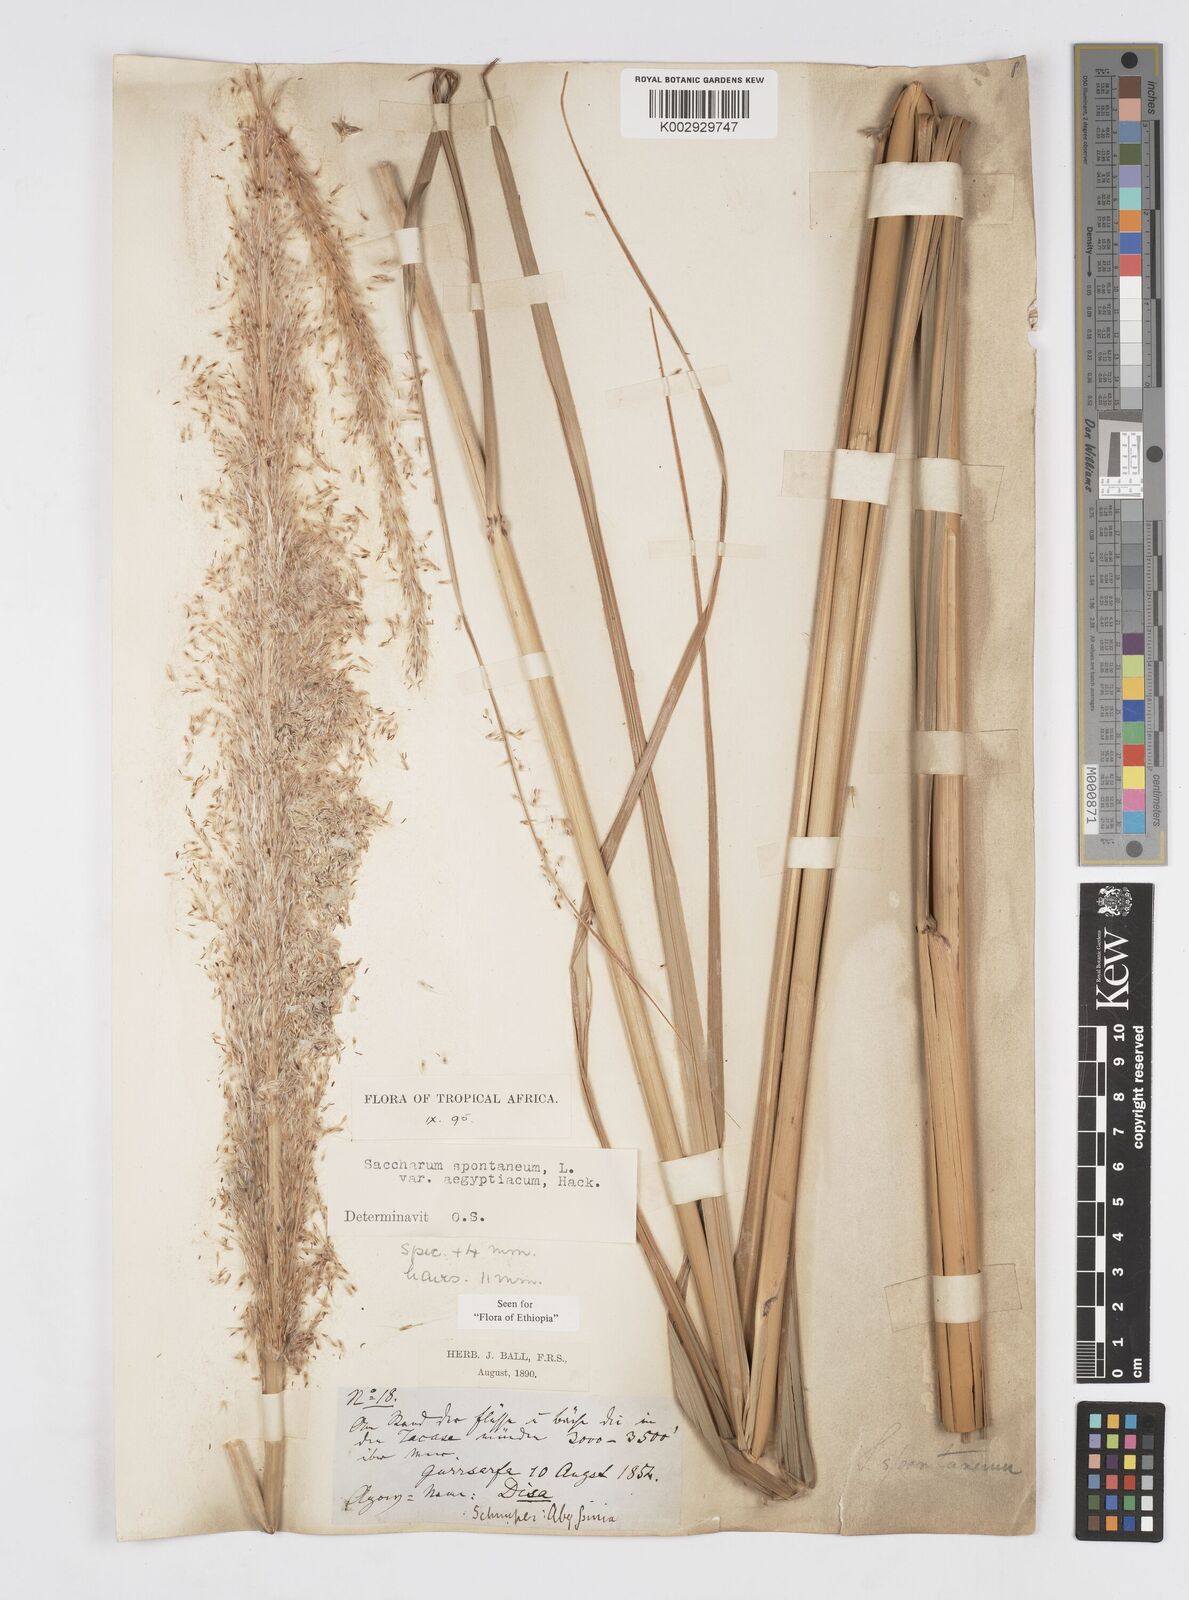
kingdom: Plantae
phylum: Tracheophyta
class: Liliopsida
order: Poales
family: Poaceae
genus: Saccharum
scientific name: Saccharum spontaneum
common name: Wild sugarcane
